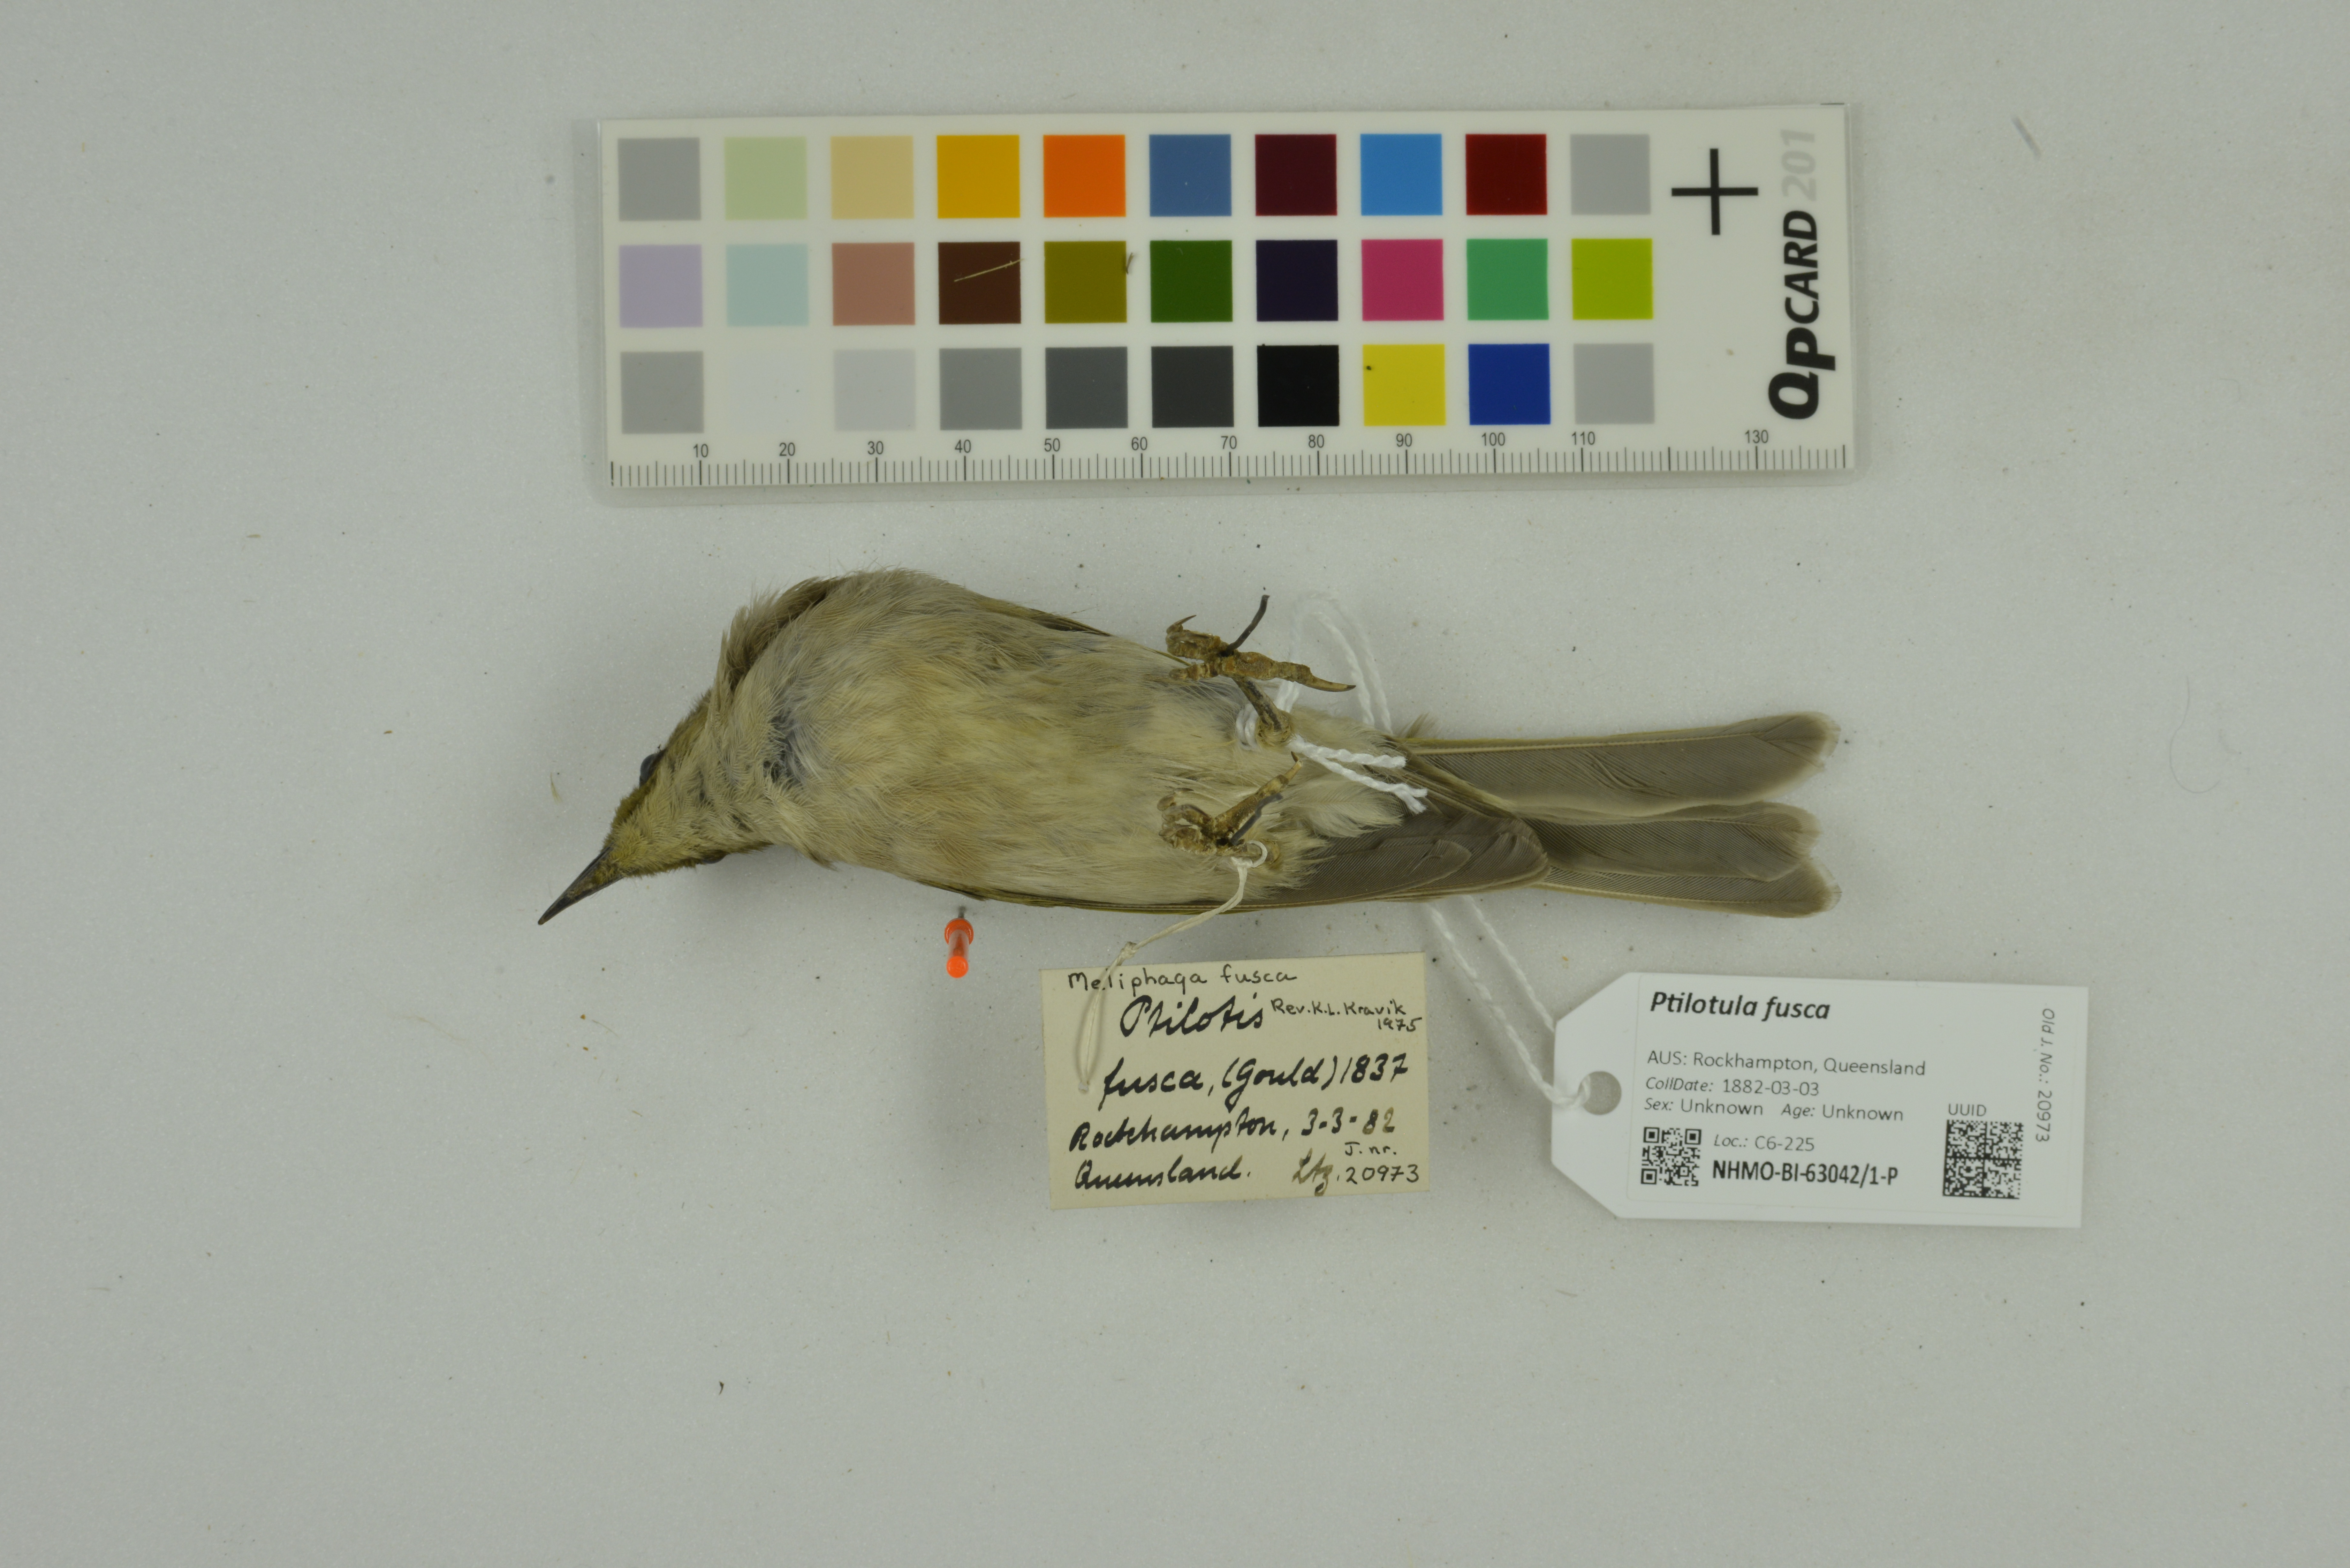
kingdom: Animalia
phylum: Chordata
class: Aves
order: Passeriformes
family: Meliphagidae
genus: Ptilotula
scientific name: Ptilotula fusca
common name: Fuscous honeyeater
